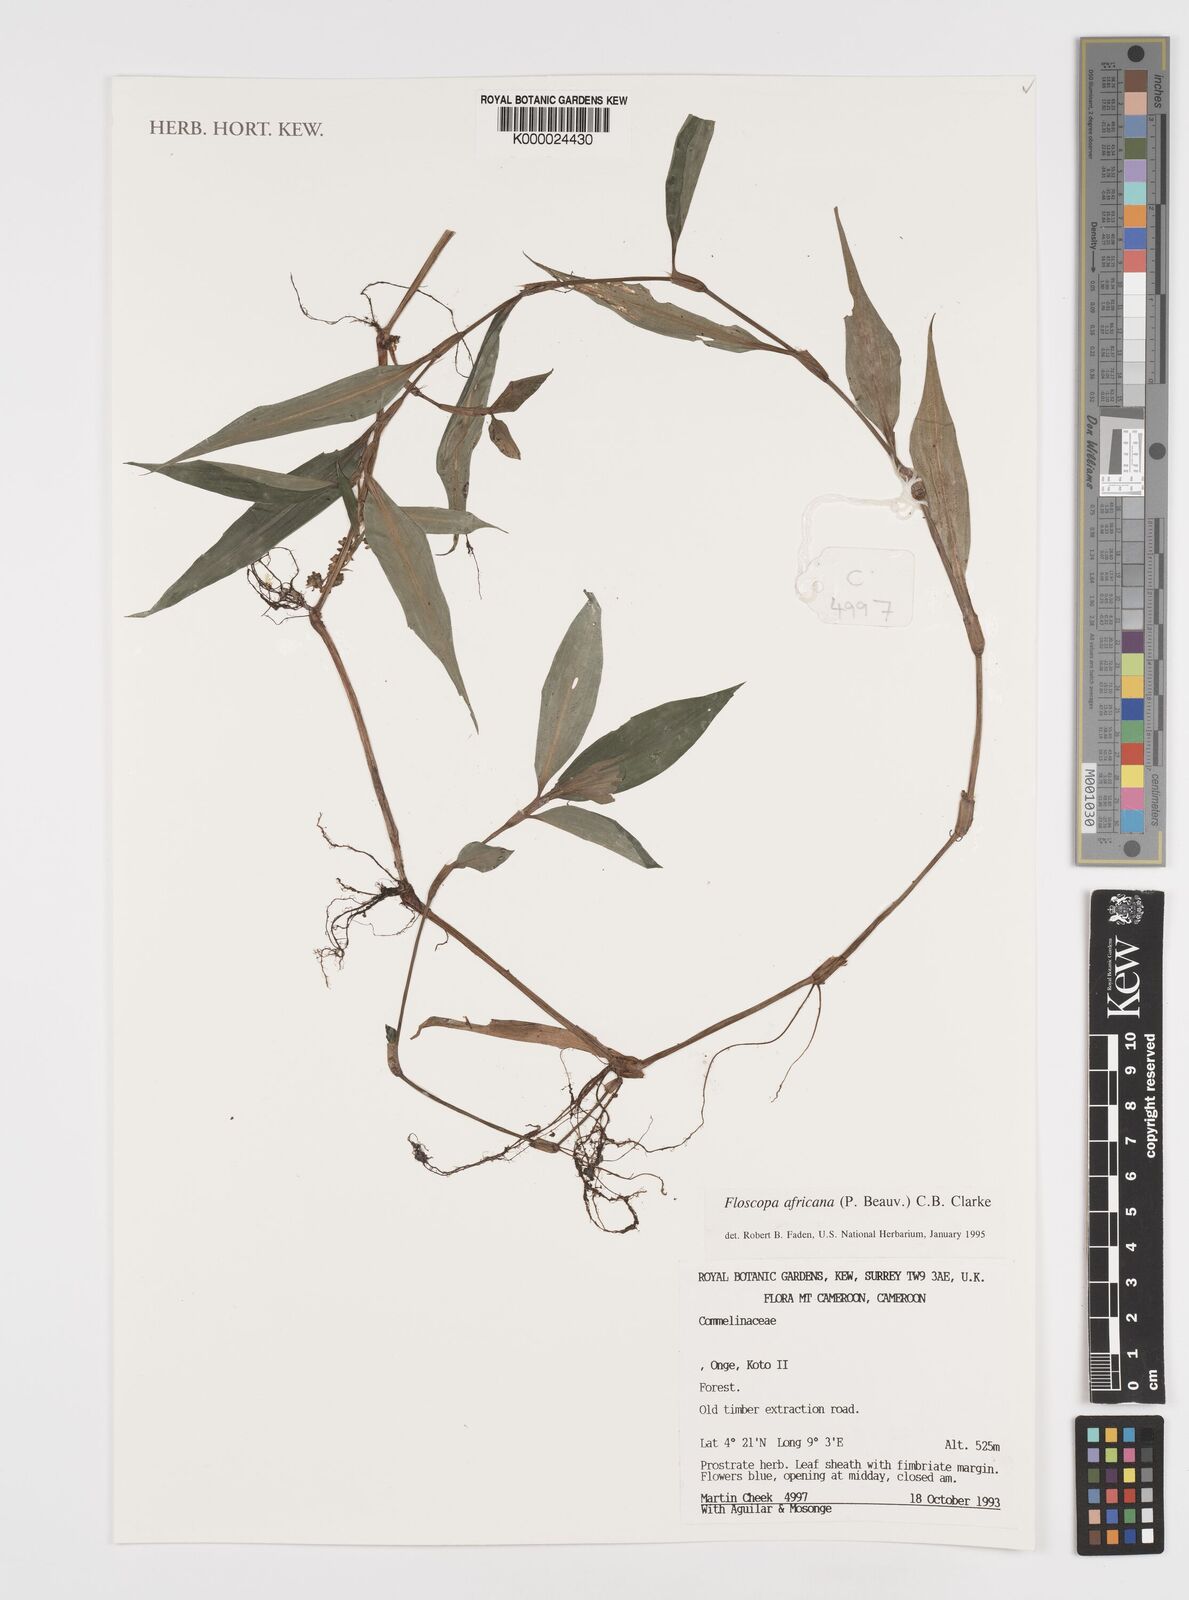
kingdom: Plantae
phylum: Tracheophyta
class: Liliopsida
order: Commelinales
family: Commelinaceae
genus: Floscopa
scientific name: Floscopa africana
